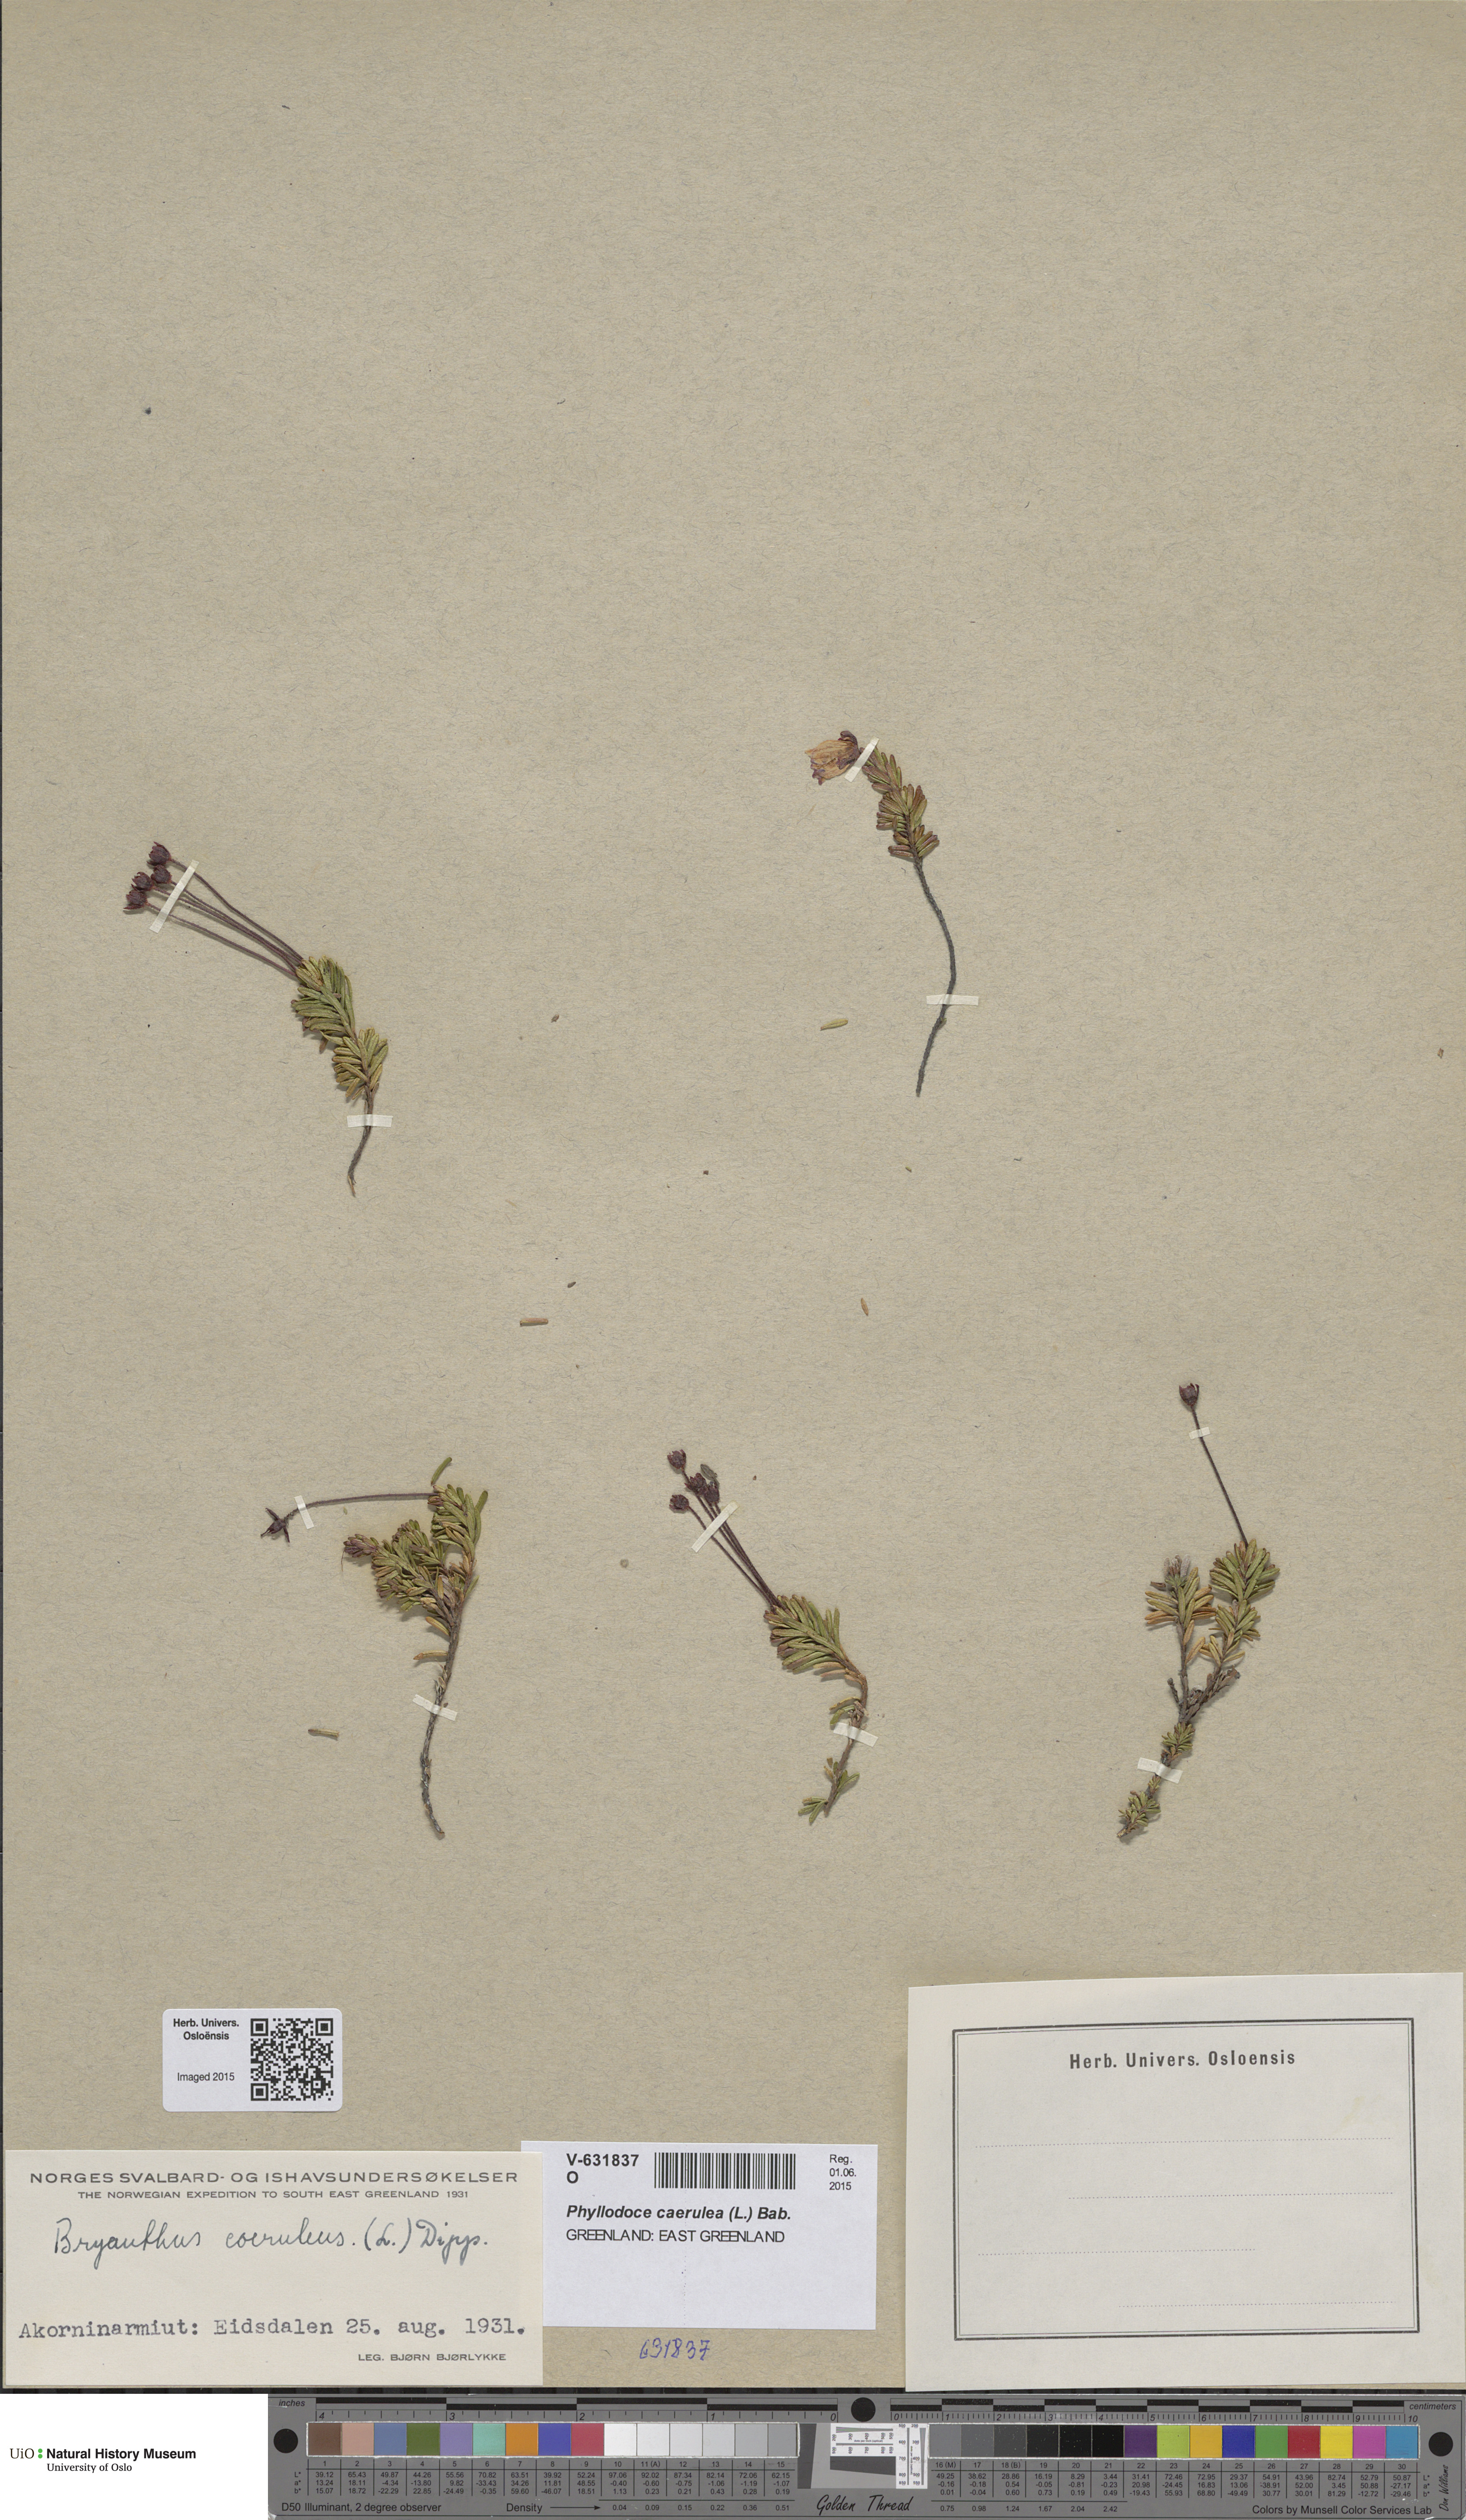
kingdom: Plantae
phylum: Tracheophyta
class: Magnoliopsida
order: Ericales
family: Ericaceae
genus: Phyllodoce
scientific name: Phyllodoce caerulea
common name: Blue heath
